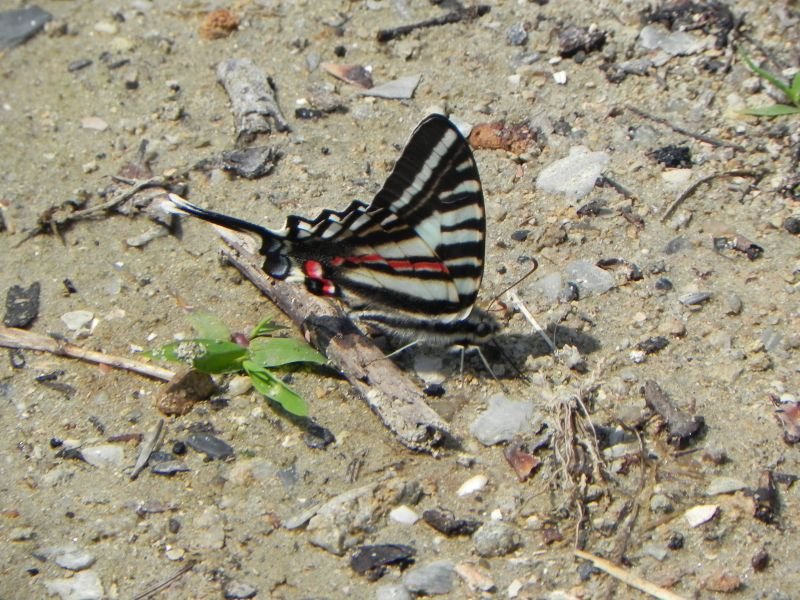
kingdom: Animalia
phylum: Arthropoda
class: Insecta
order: Lepidoptera
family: Papilionidae
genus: Protographium
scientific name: Protographium marcellus
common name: Zebra Swallowtail
